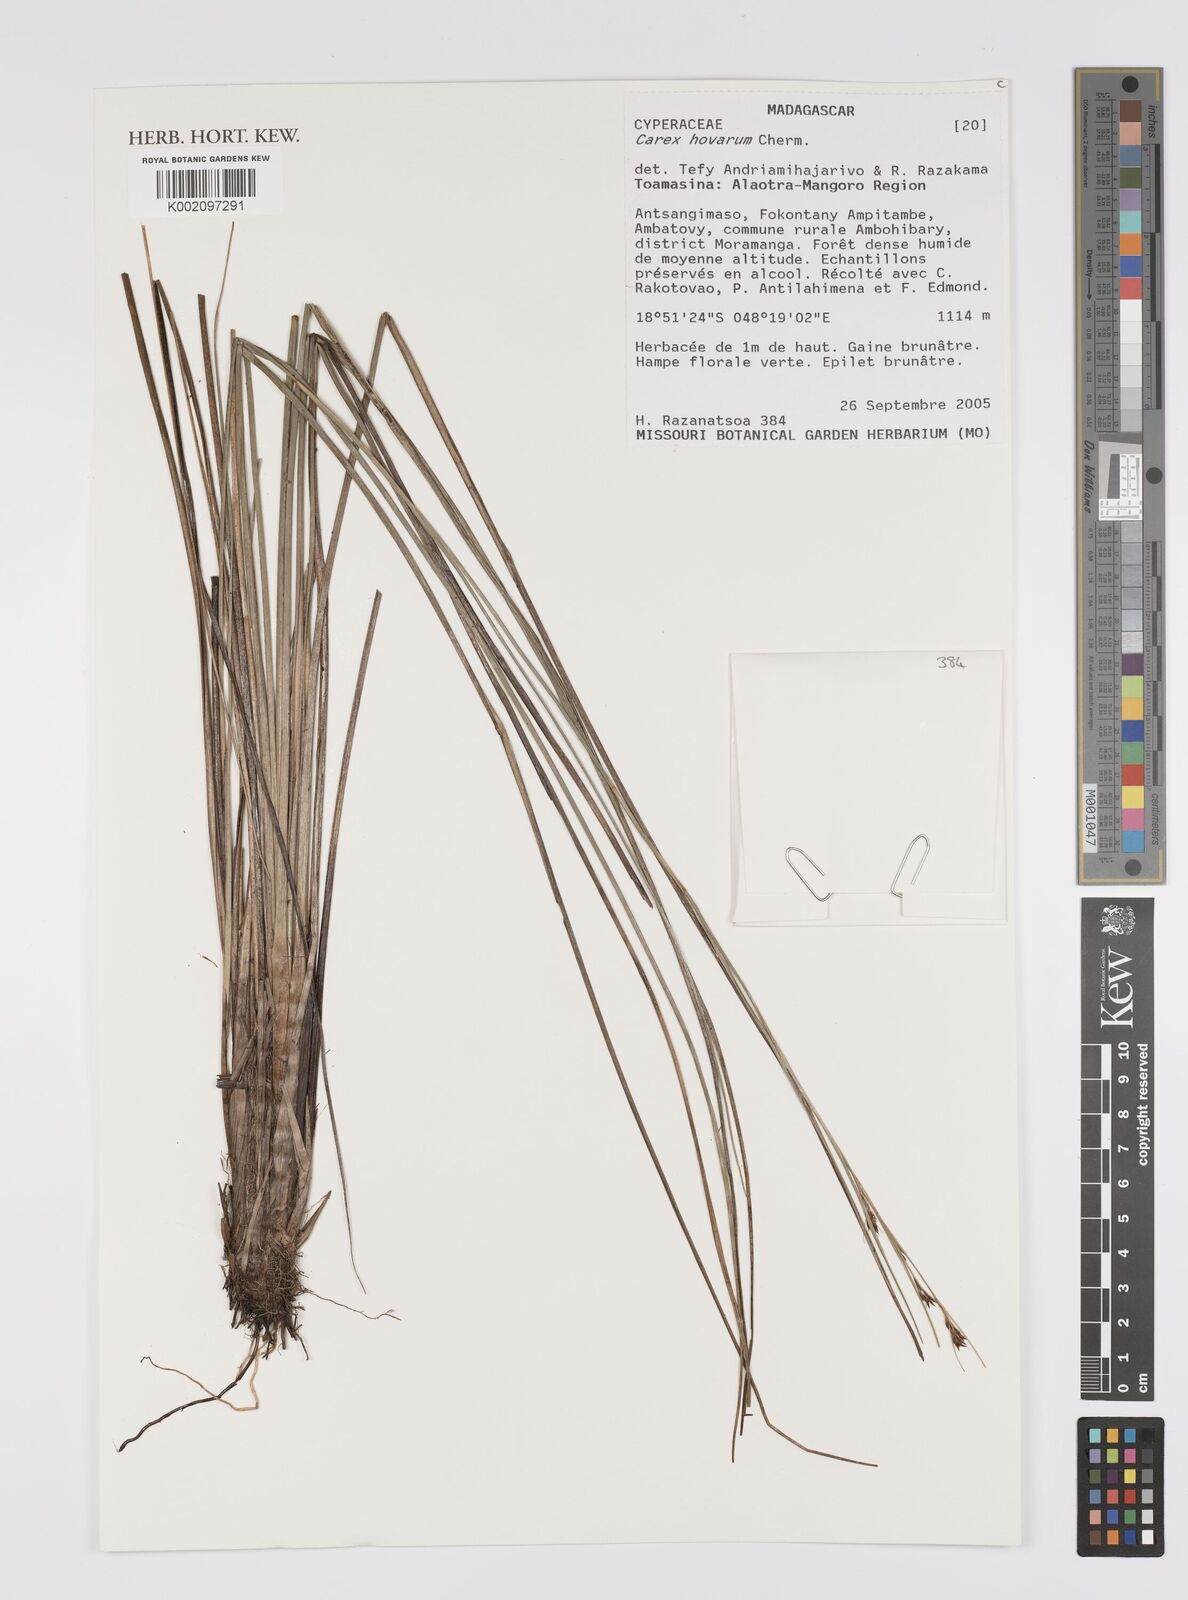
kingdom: Plantae
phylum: Tracheophyta
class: Liliopsida
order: Poales
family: Cyperaceae
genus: Carex
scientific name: Carex hovarum
